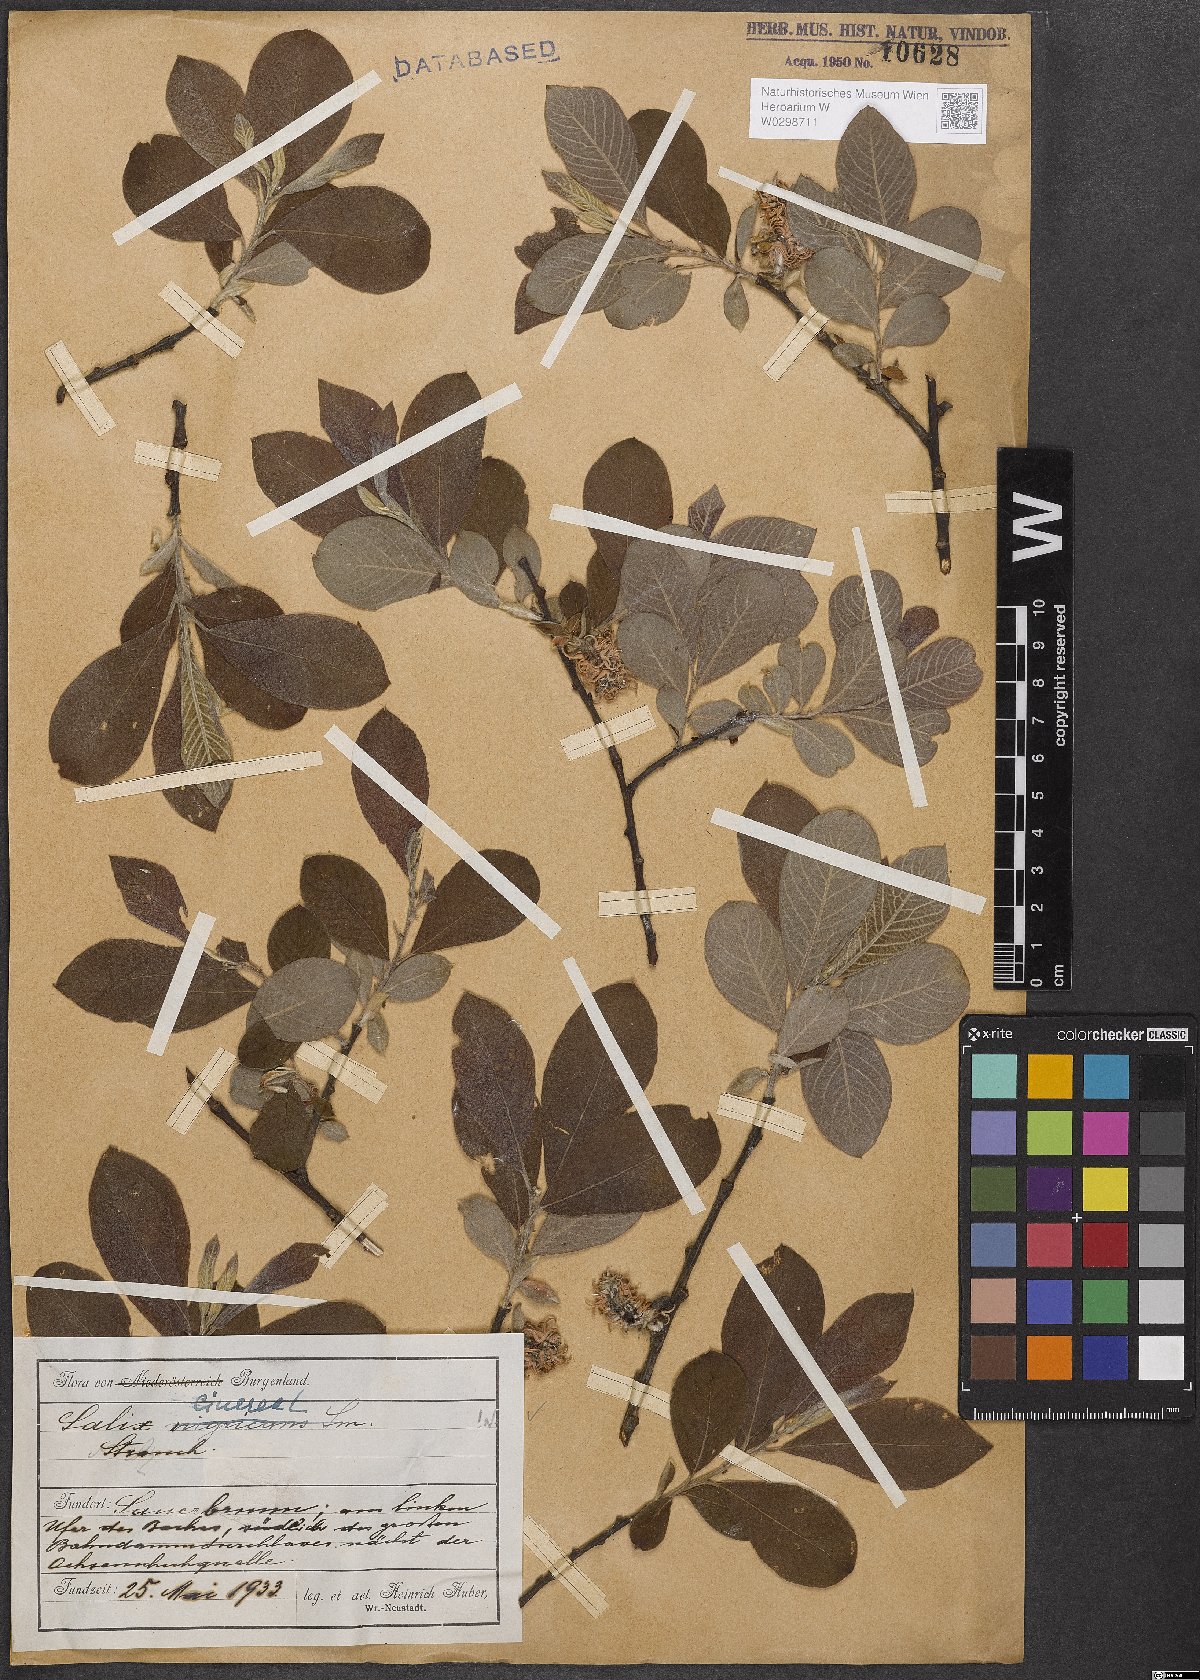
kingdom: Plantae
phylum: Tracheophyta
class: Magnoliopsida
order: Malpighiales
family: Salicaceae
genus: Salix
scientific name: Salix cinerea
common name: Common sallow
